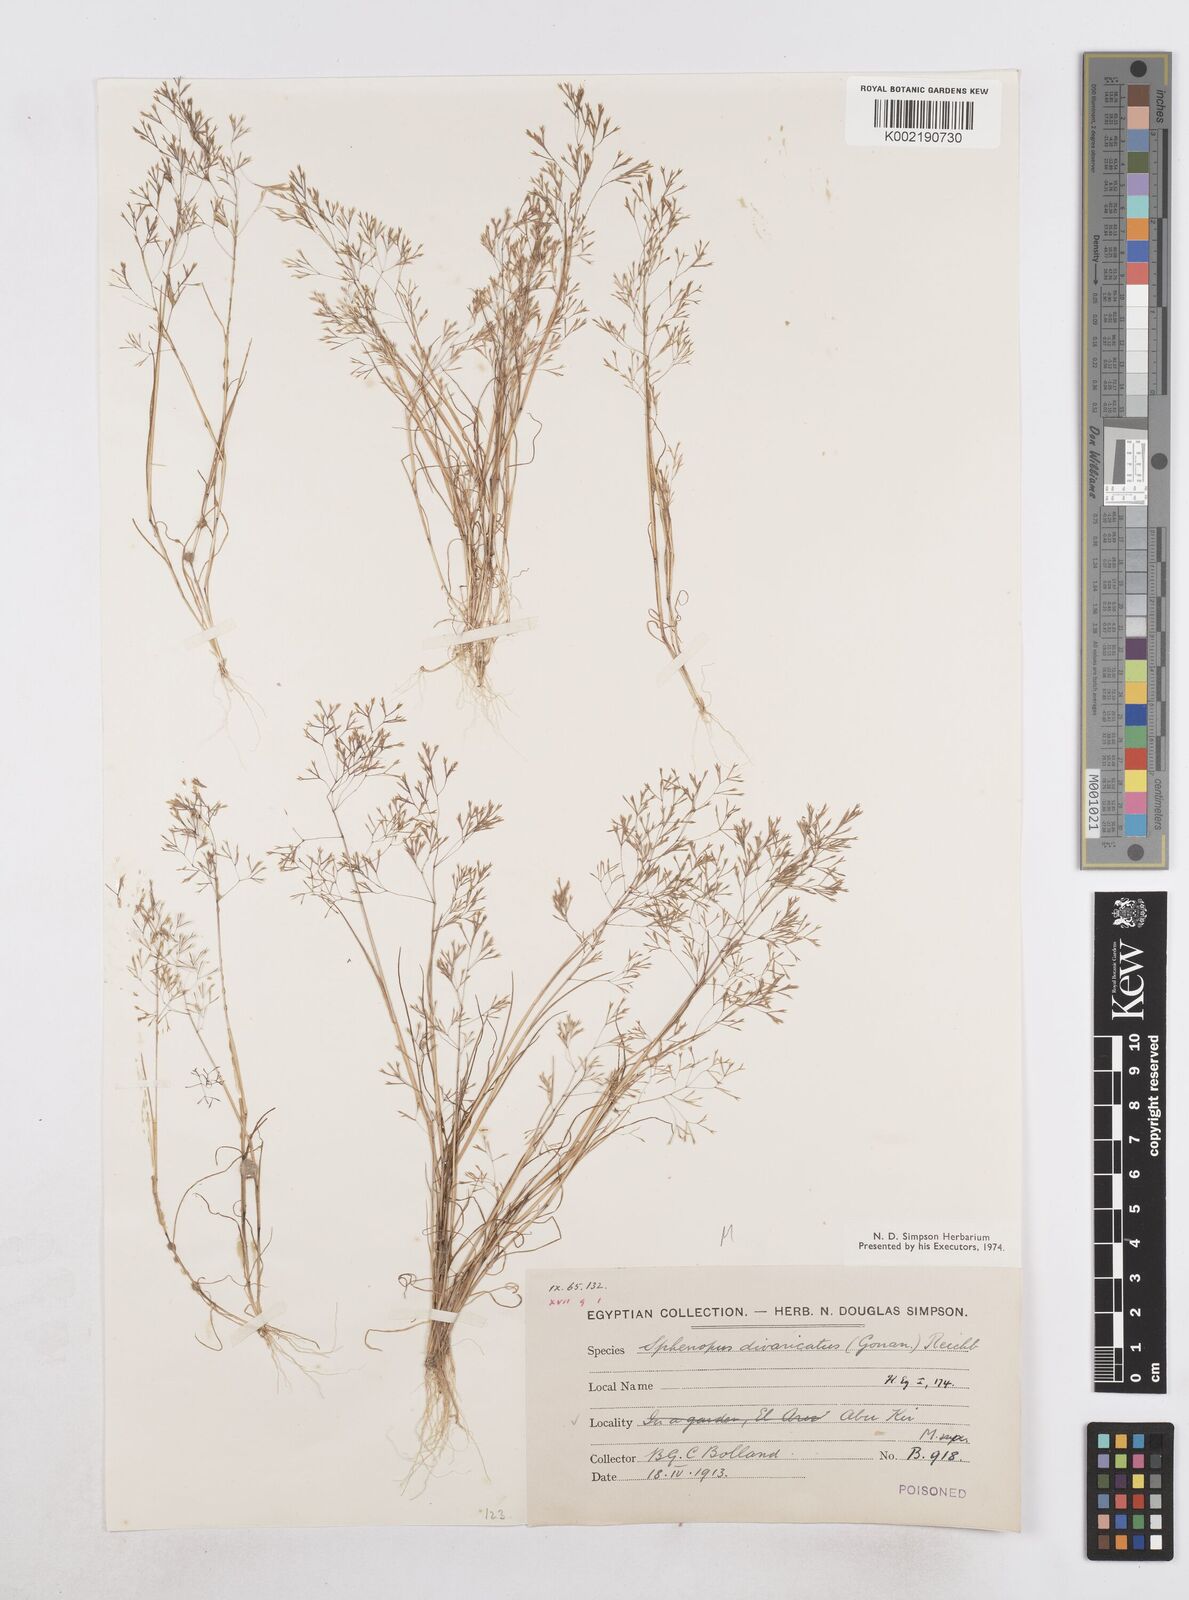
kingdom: Plantae
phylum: Tracheophyta
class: Liliopsida
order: Poales
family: Poaceae
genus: Sphenopus
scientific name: Sphenopus divaricatus
